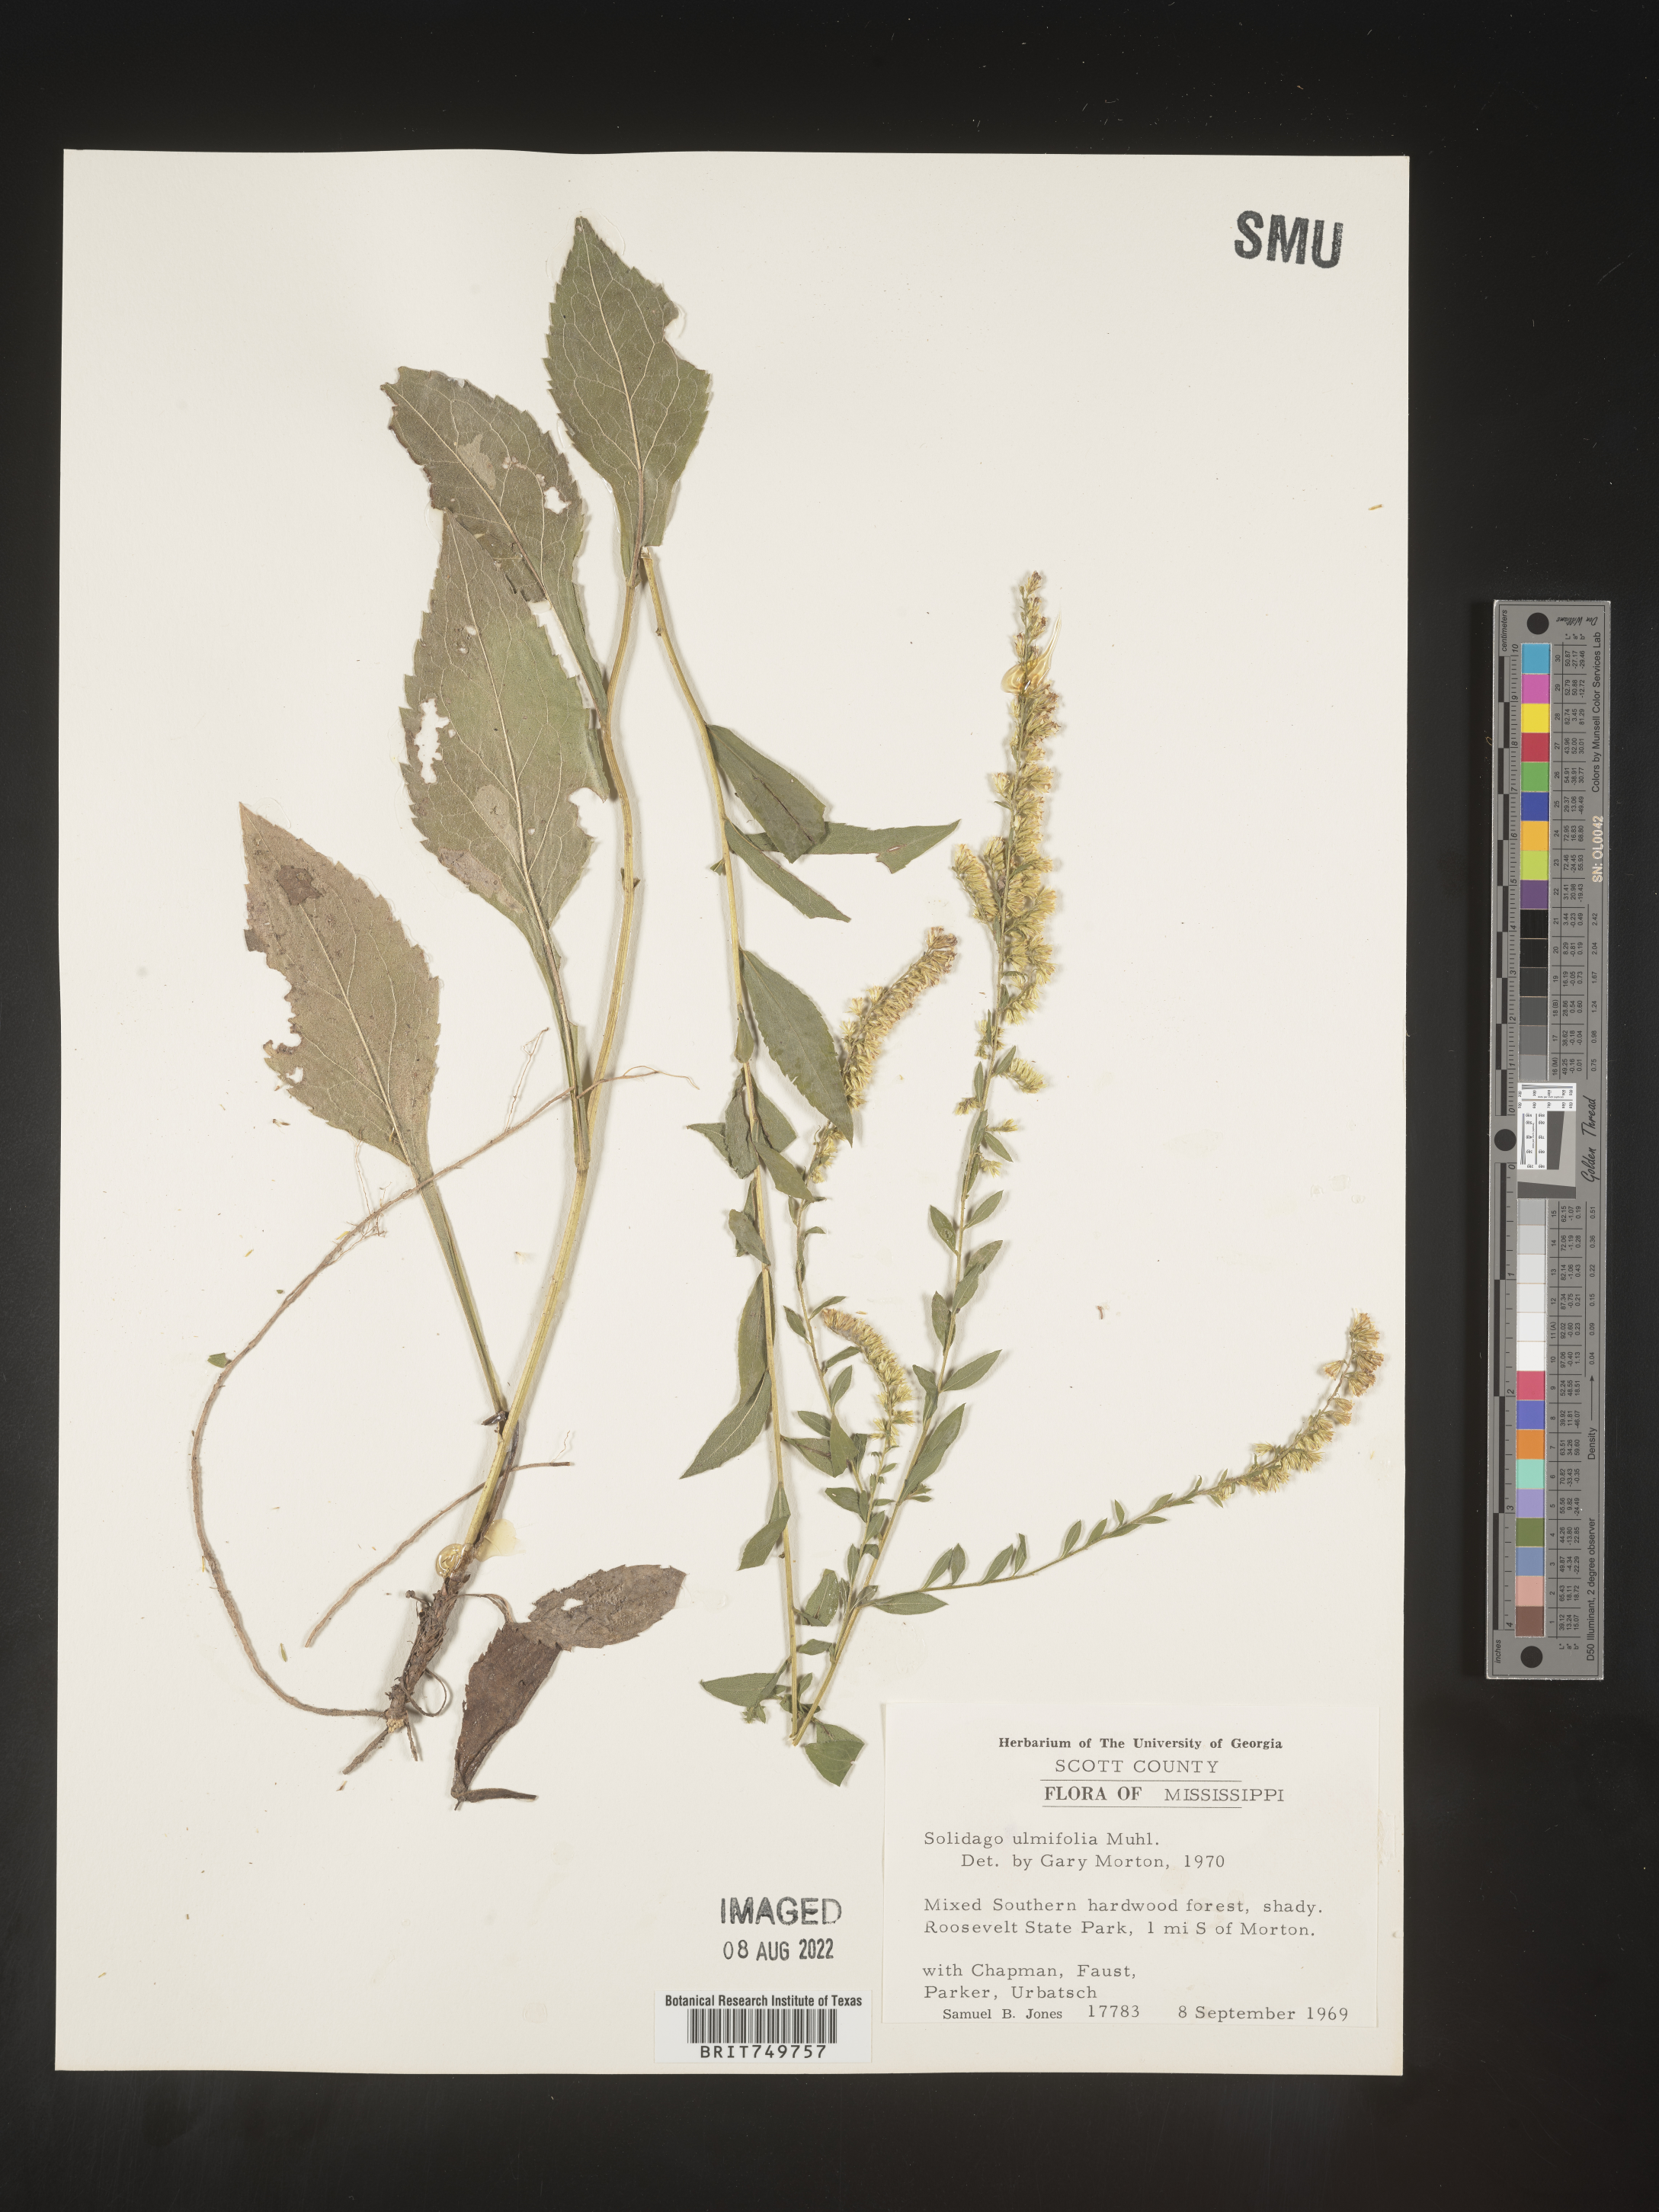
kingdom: Plantae
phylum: Tracheophyta
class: Magnoliopsida
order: Asterales
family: Asteraceae
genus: Solidago
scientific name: Solidago ulmifolia
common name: Elm-leaf goldenrod
